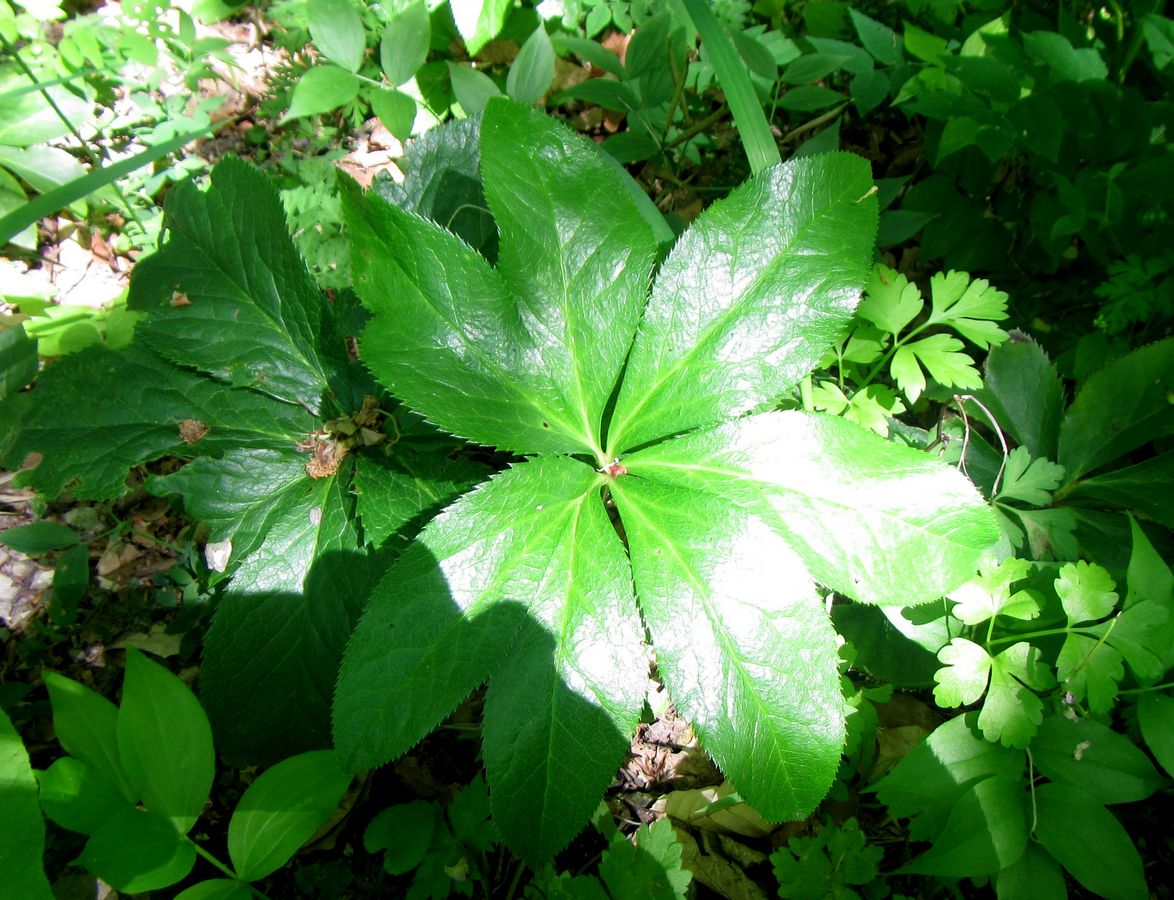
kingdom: Plantae
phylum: Tracheophyta
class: Magnoliopsida
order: Ranunculales
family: Ranunculaceae
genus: Helleborus
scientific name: Helleborus orientalis
